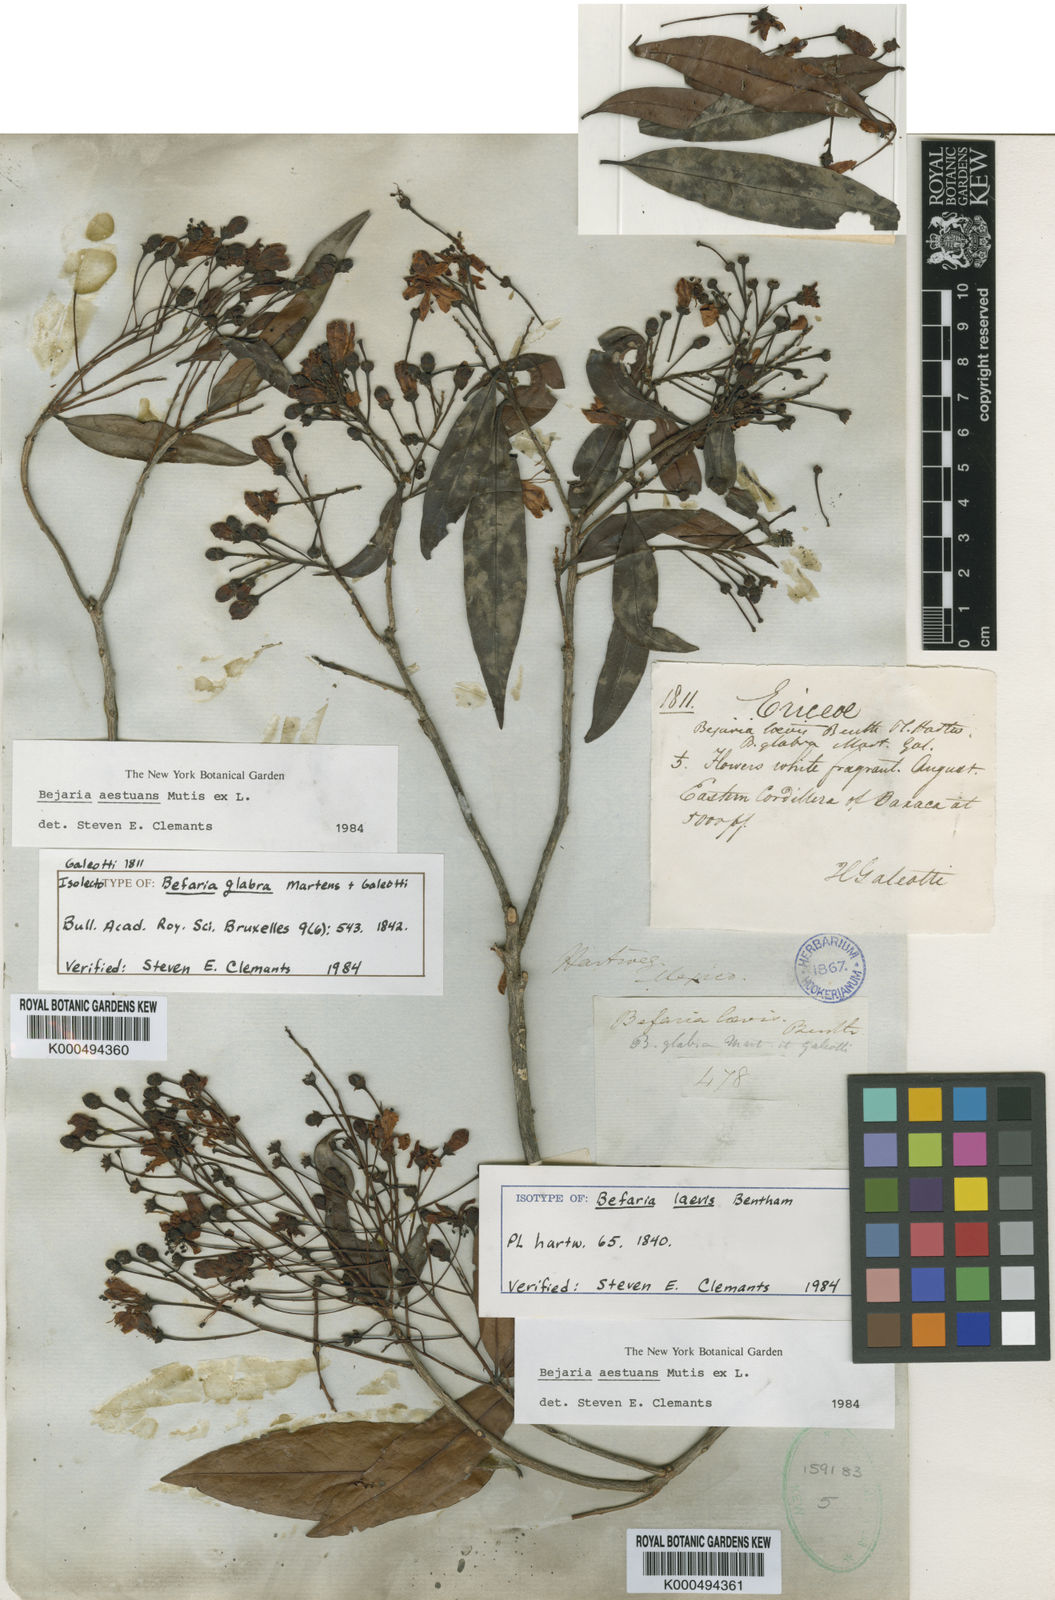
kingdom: Plantae
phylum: Tracheophyta
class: Magnoliopsida
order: Ericales
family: Ericaceae
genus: Bejaria
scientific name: Bejaria
